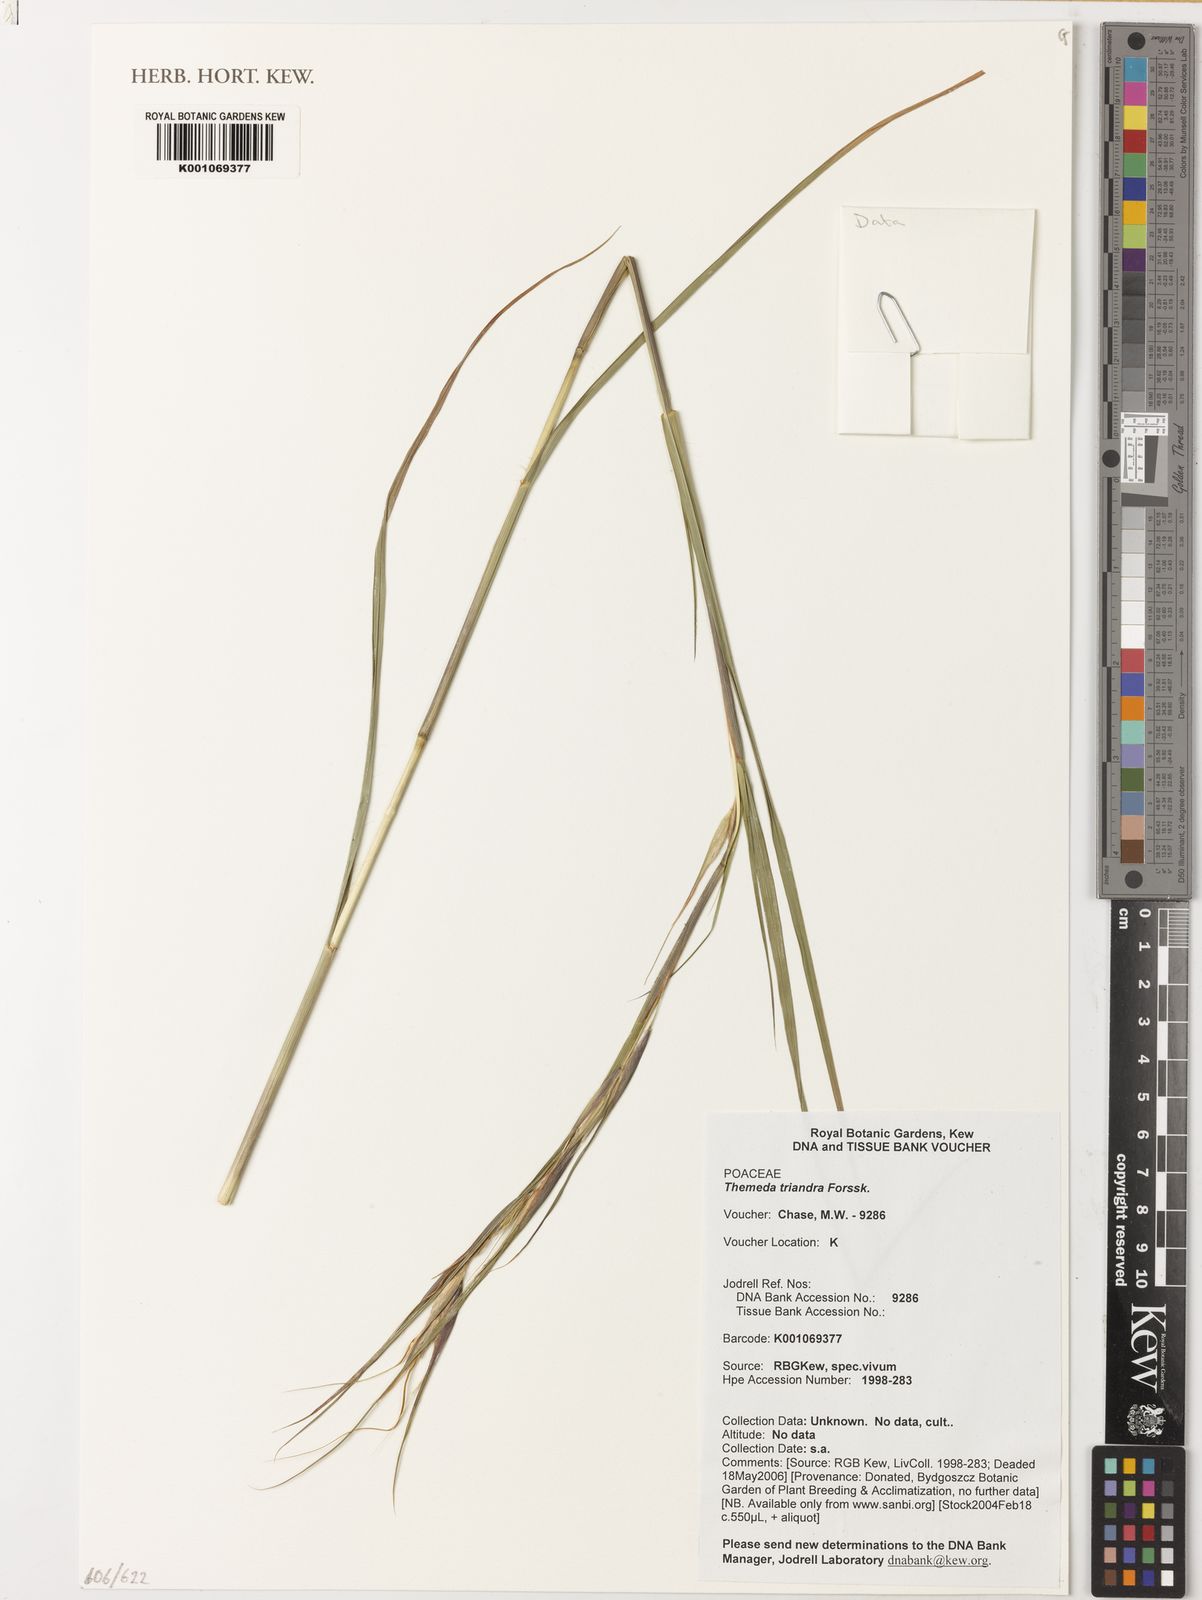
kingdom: Plantae
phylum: Tracheophyta
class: Liliopsida
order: Poales
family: Poaceae
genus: Themeda
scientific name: Themeda triandra
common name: Kangaroo grass
